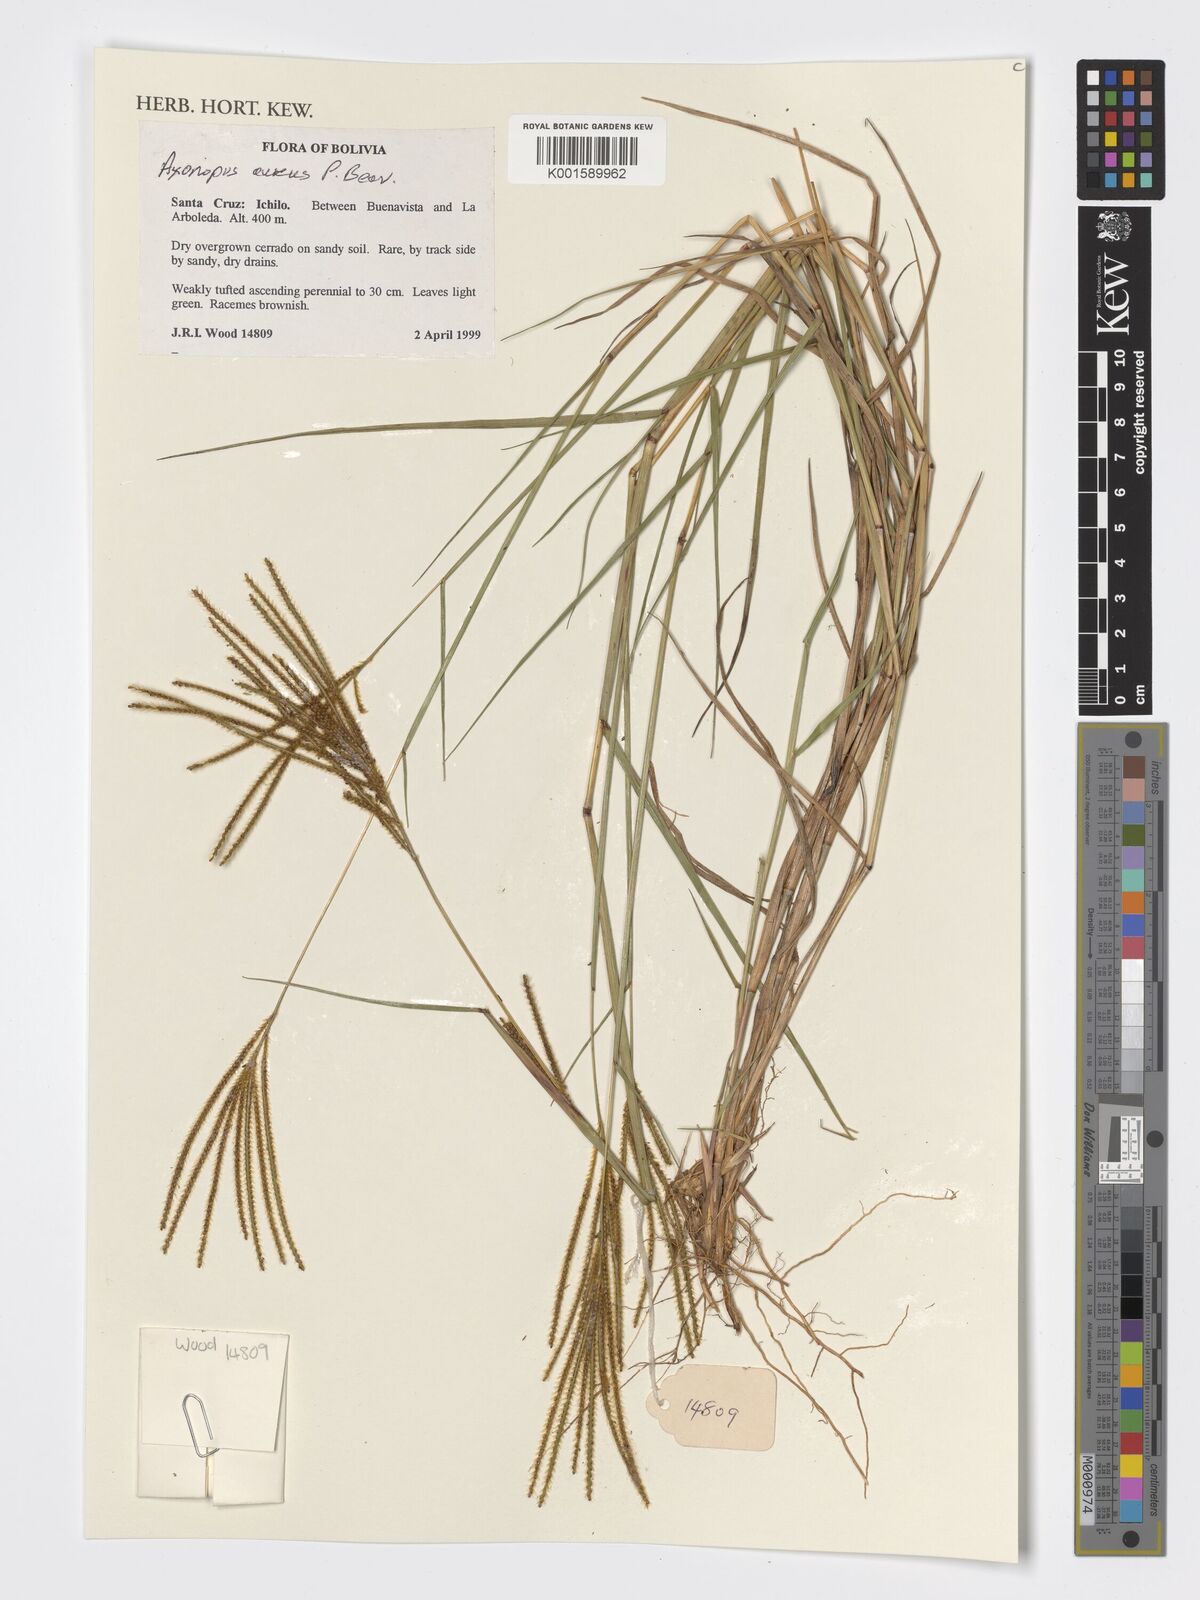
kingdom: Plantae
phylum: Tracheophyta
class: Liliopsida
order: Poales
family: Poaceae
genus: Axonopus
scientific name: Axonopus aureus
